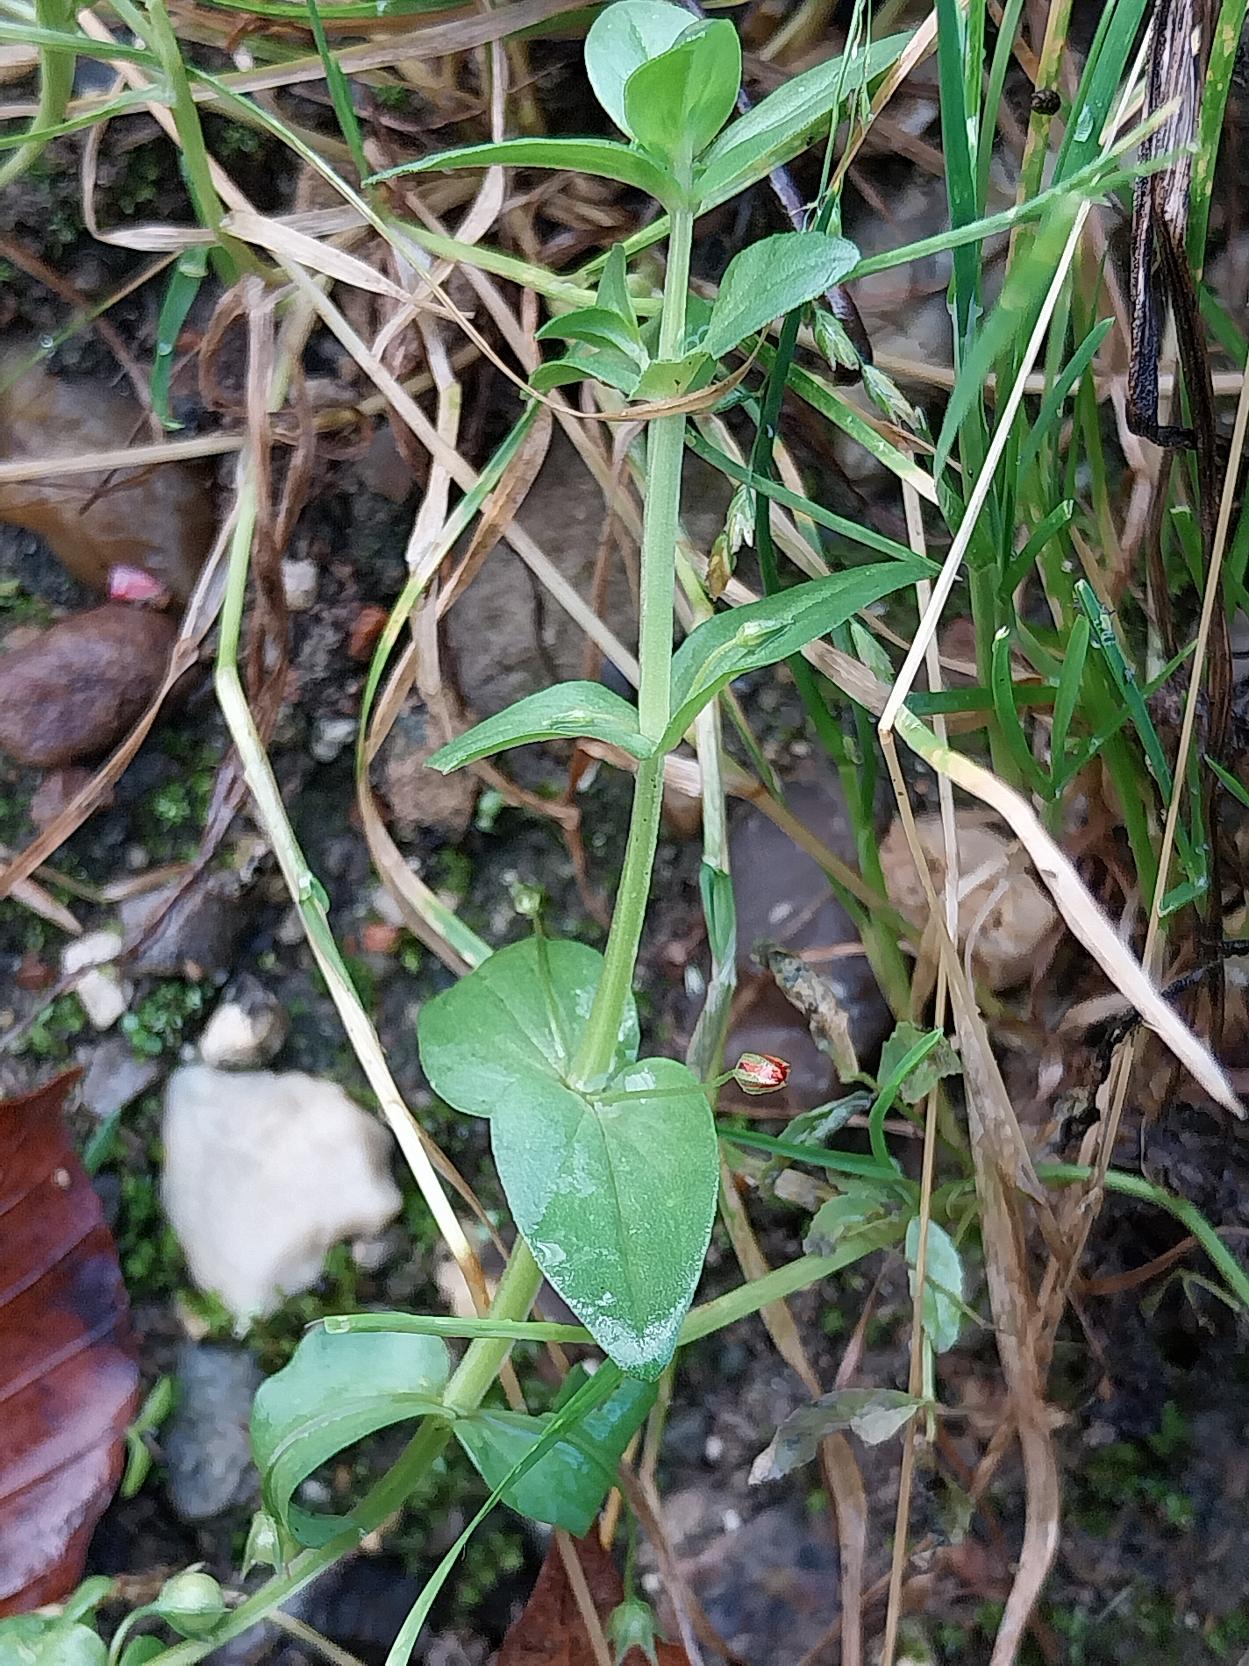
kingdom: Plantae
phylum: Tracheophyta
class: Magnoliopsida
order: Ericales
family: Primulaceae
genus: Lysimachia
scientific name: Lysimachia arvensis
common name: Rød arve
